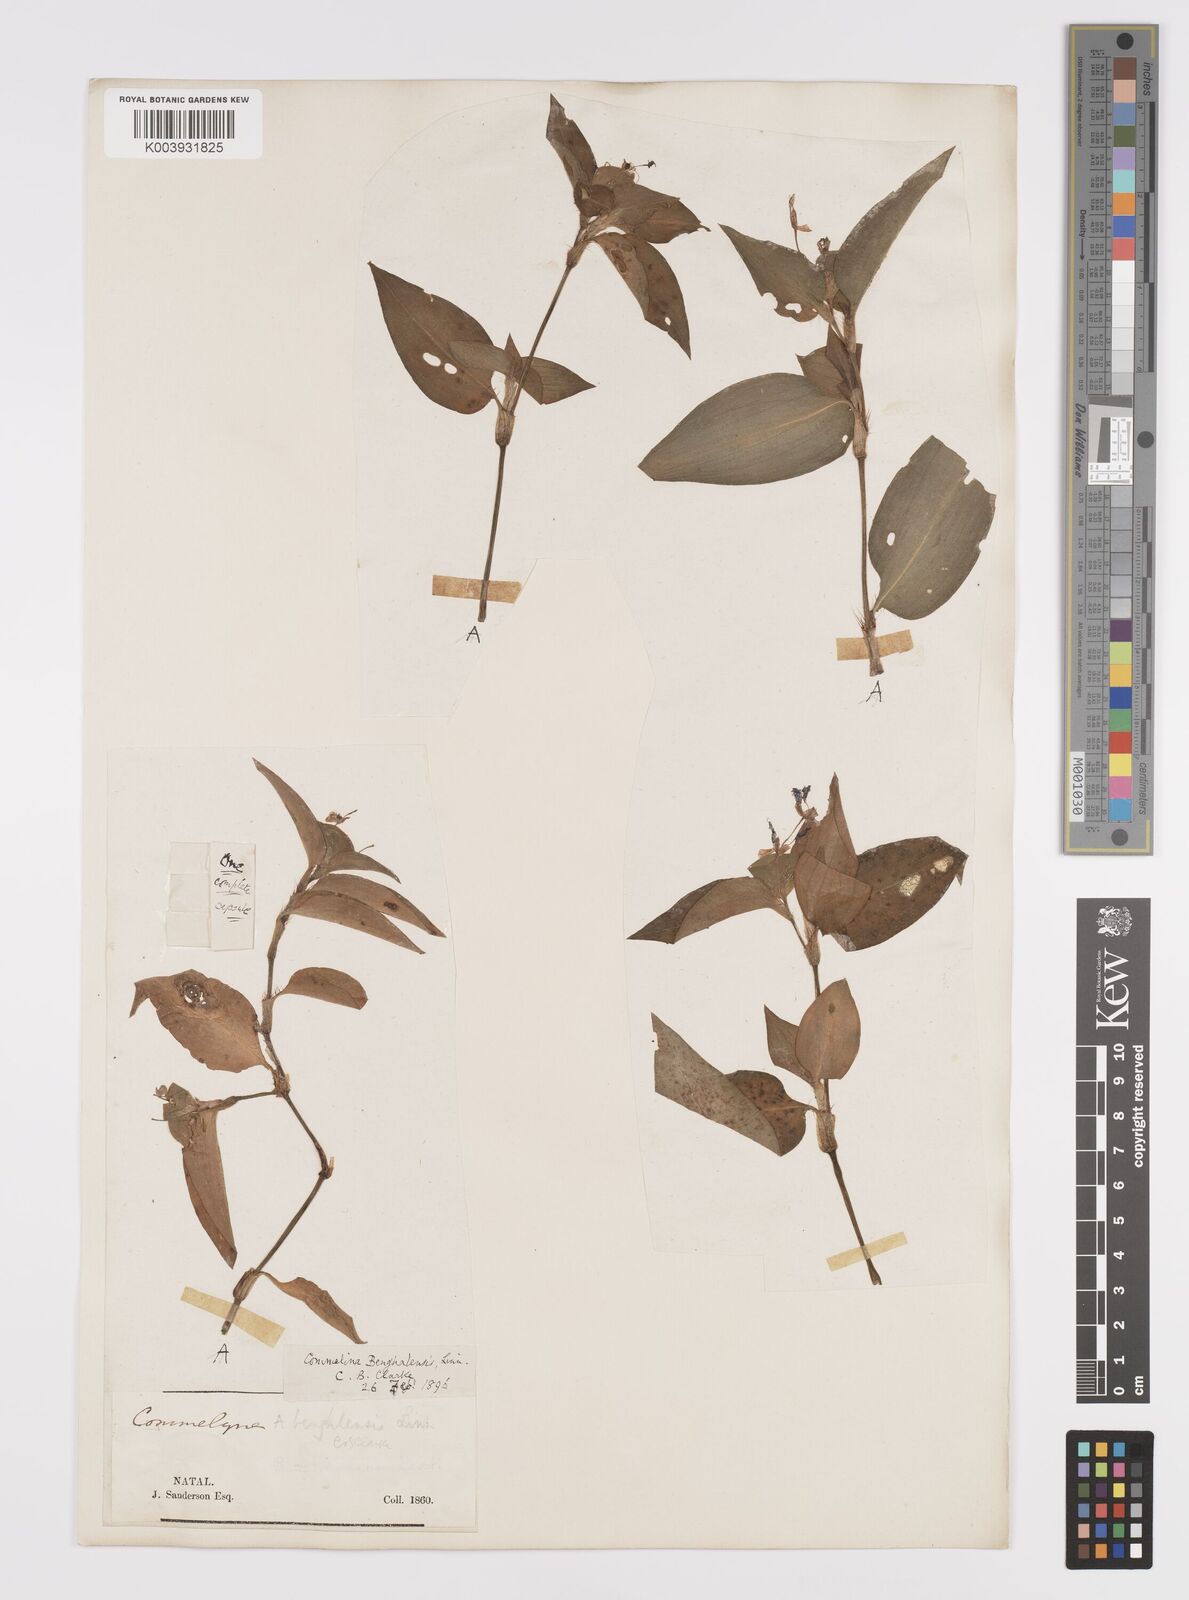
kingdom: Plantae
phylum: Tracheophyta
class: Liliopsida
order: Commelinales
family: Commelinaceae
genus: Commelina
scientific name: Commelina benghalensis
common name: Jio
